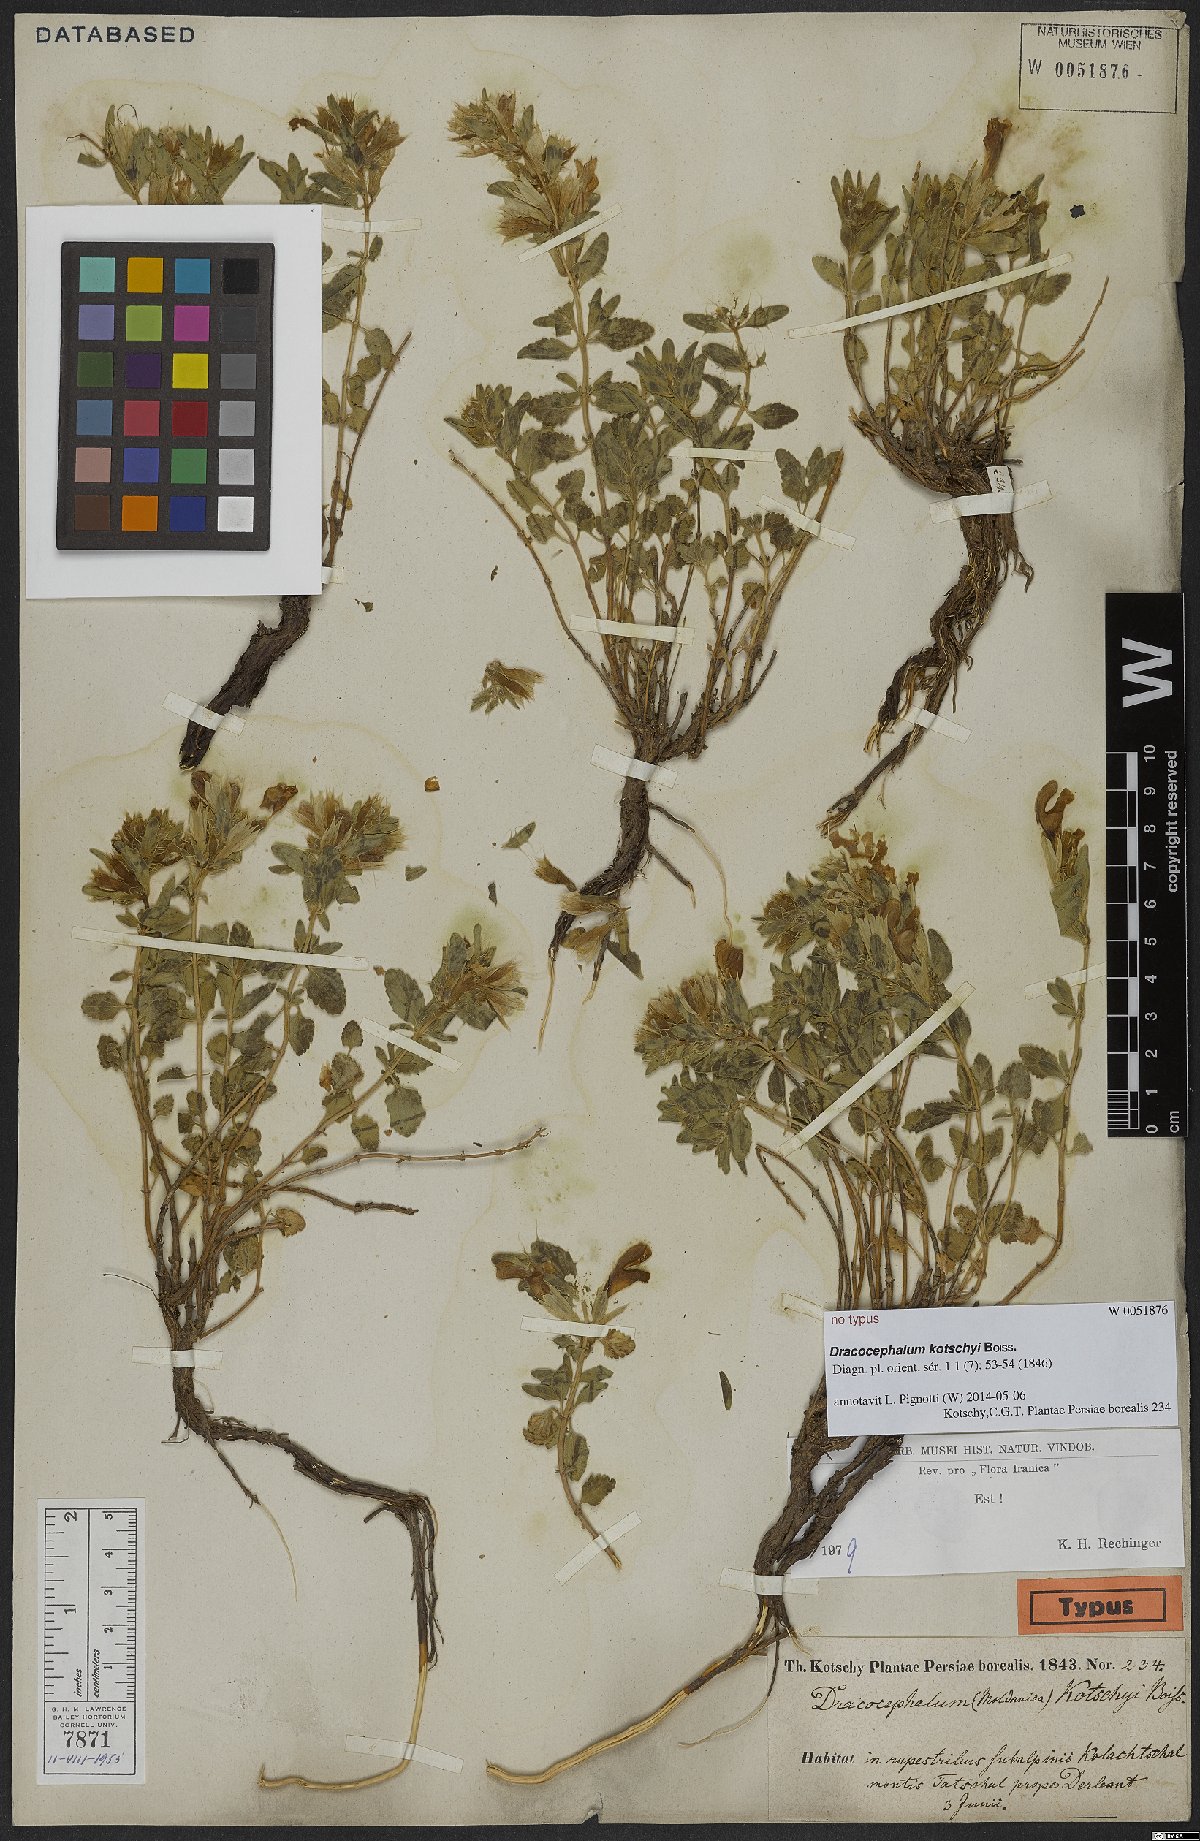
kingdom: Plantae
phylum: Tracheophyta
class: Magnoliopsida
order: Lamiales
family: Lamiaceae
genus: Dracocephalum
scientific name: Dracocephalum kotschyi
